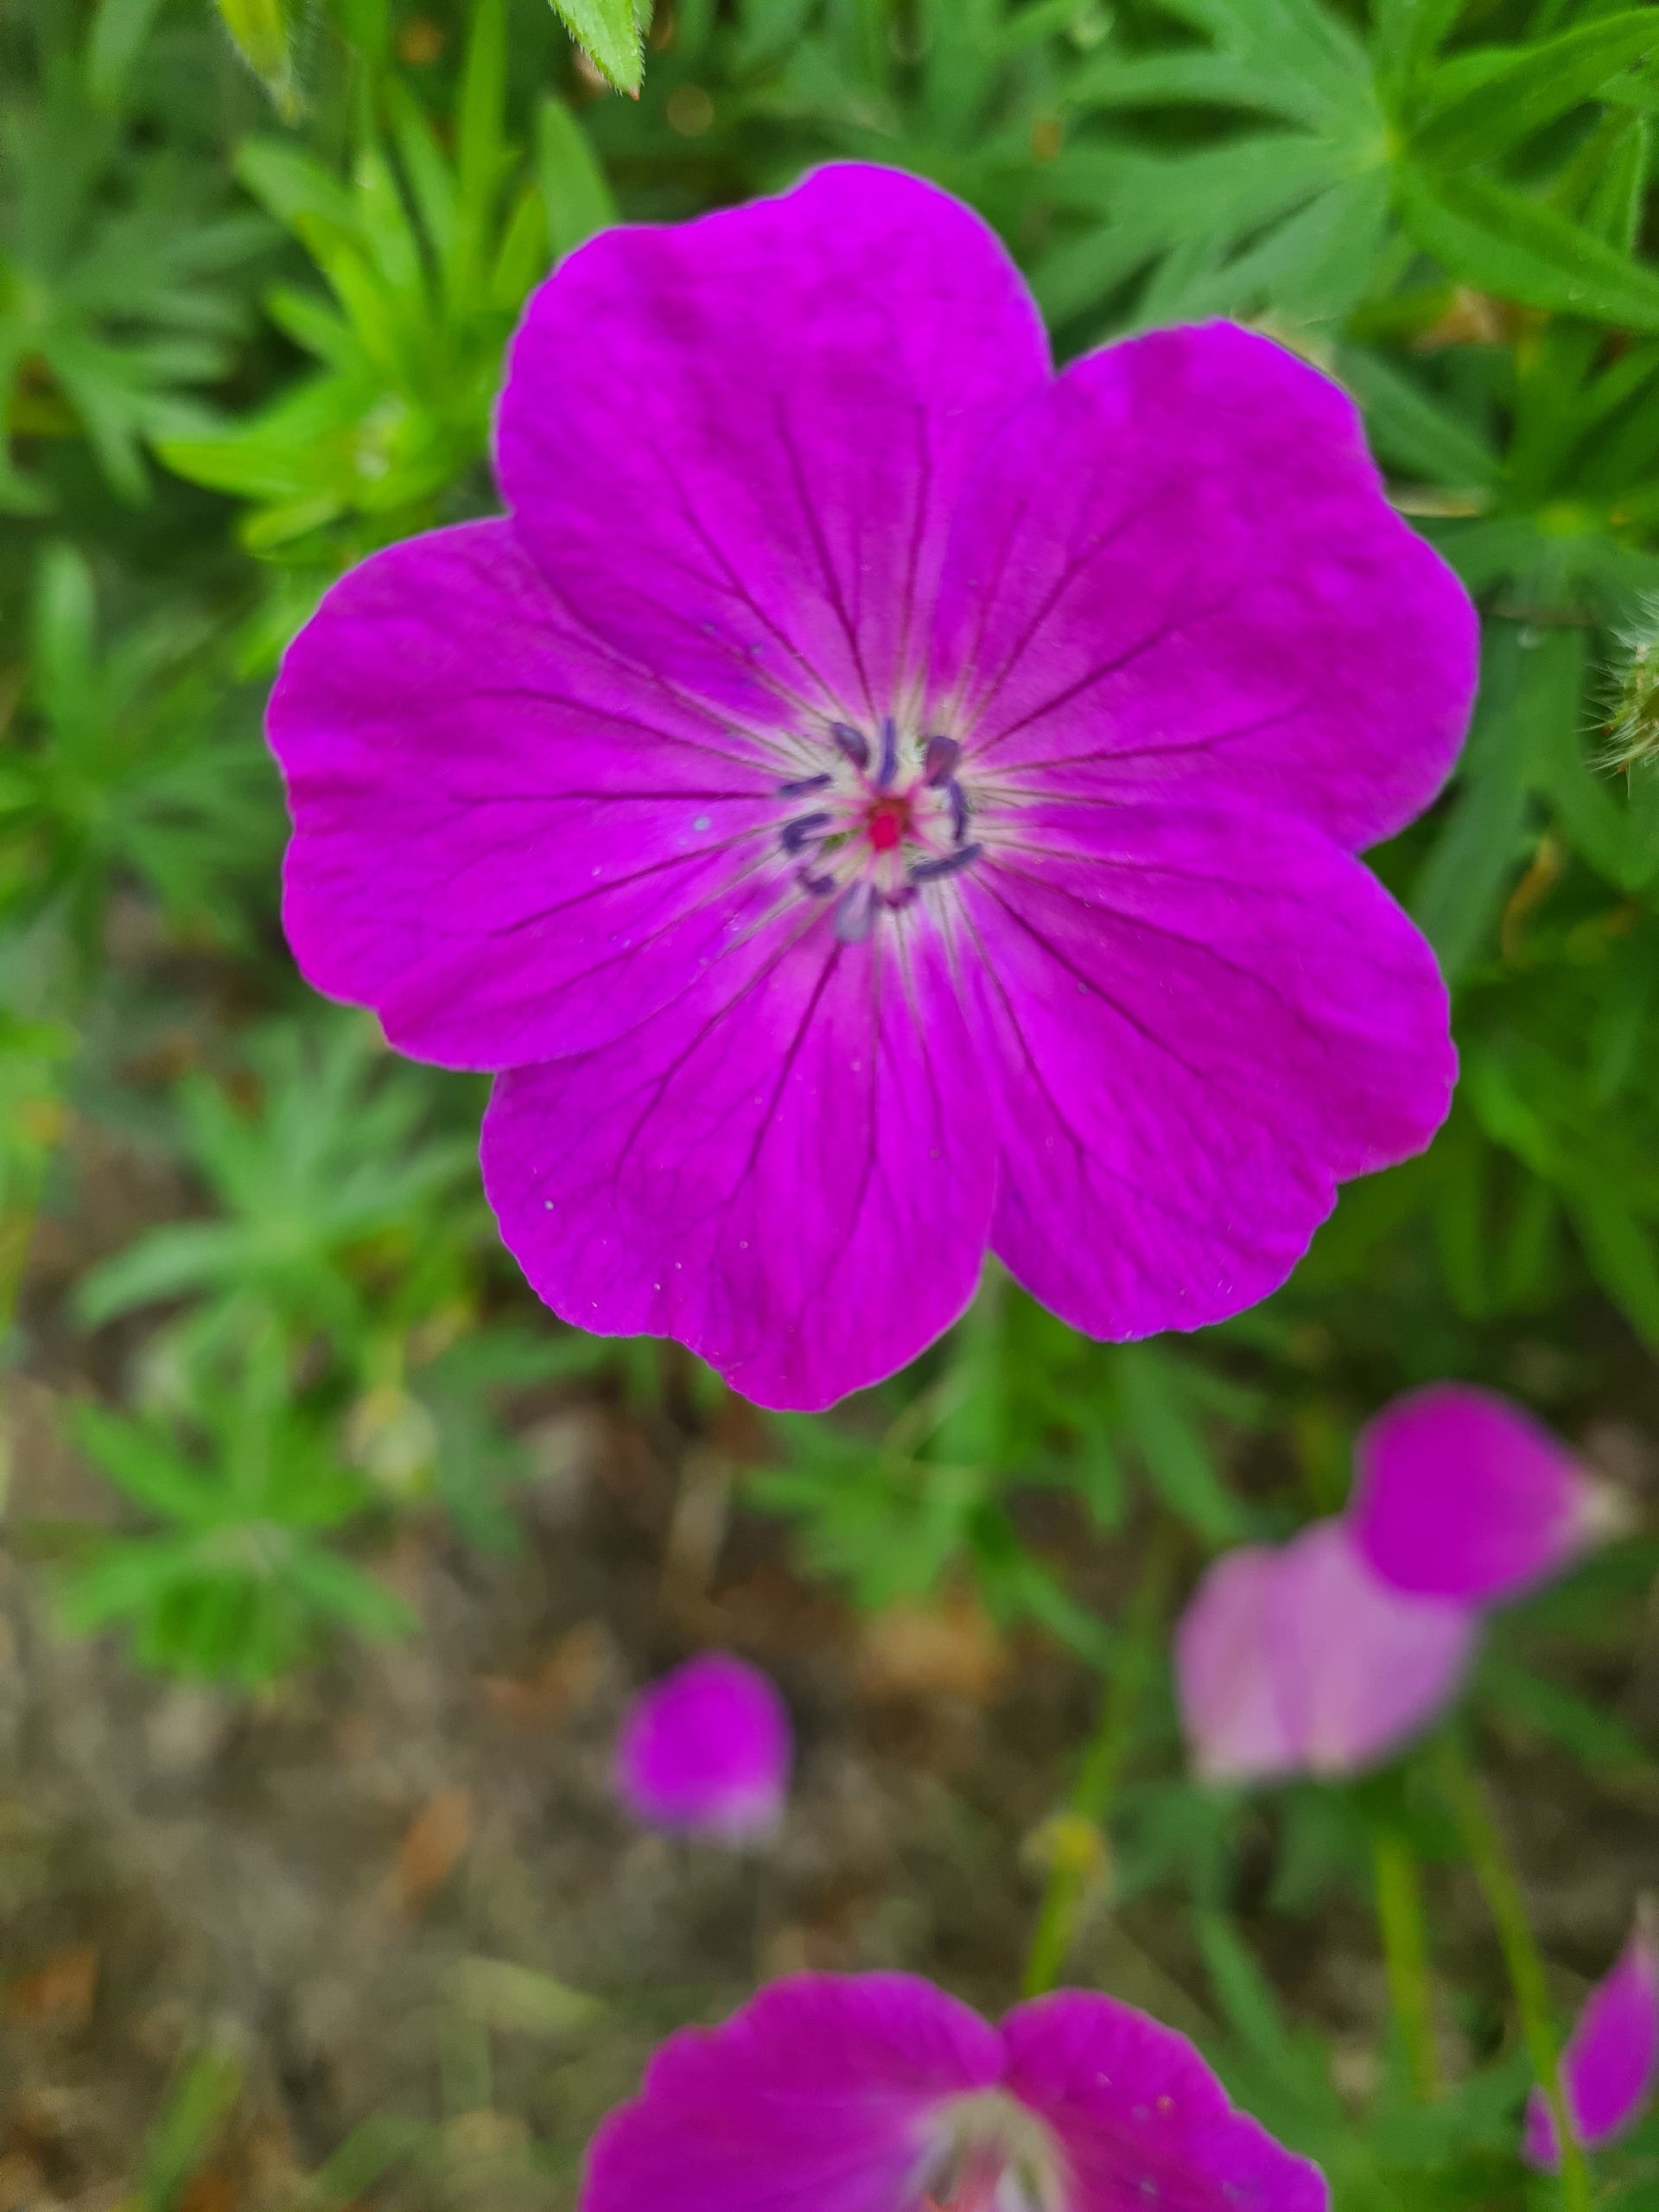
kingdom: Plantae
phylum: Tracheophyta
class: Magnoliopsida
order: Geraniales
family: Geraniaceae
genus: Geranium
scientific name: Geranium sanguineum
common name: Blodrød storkenæb
